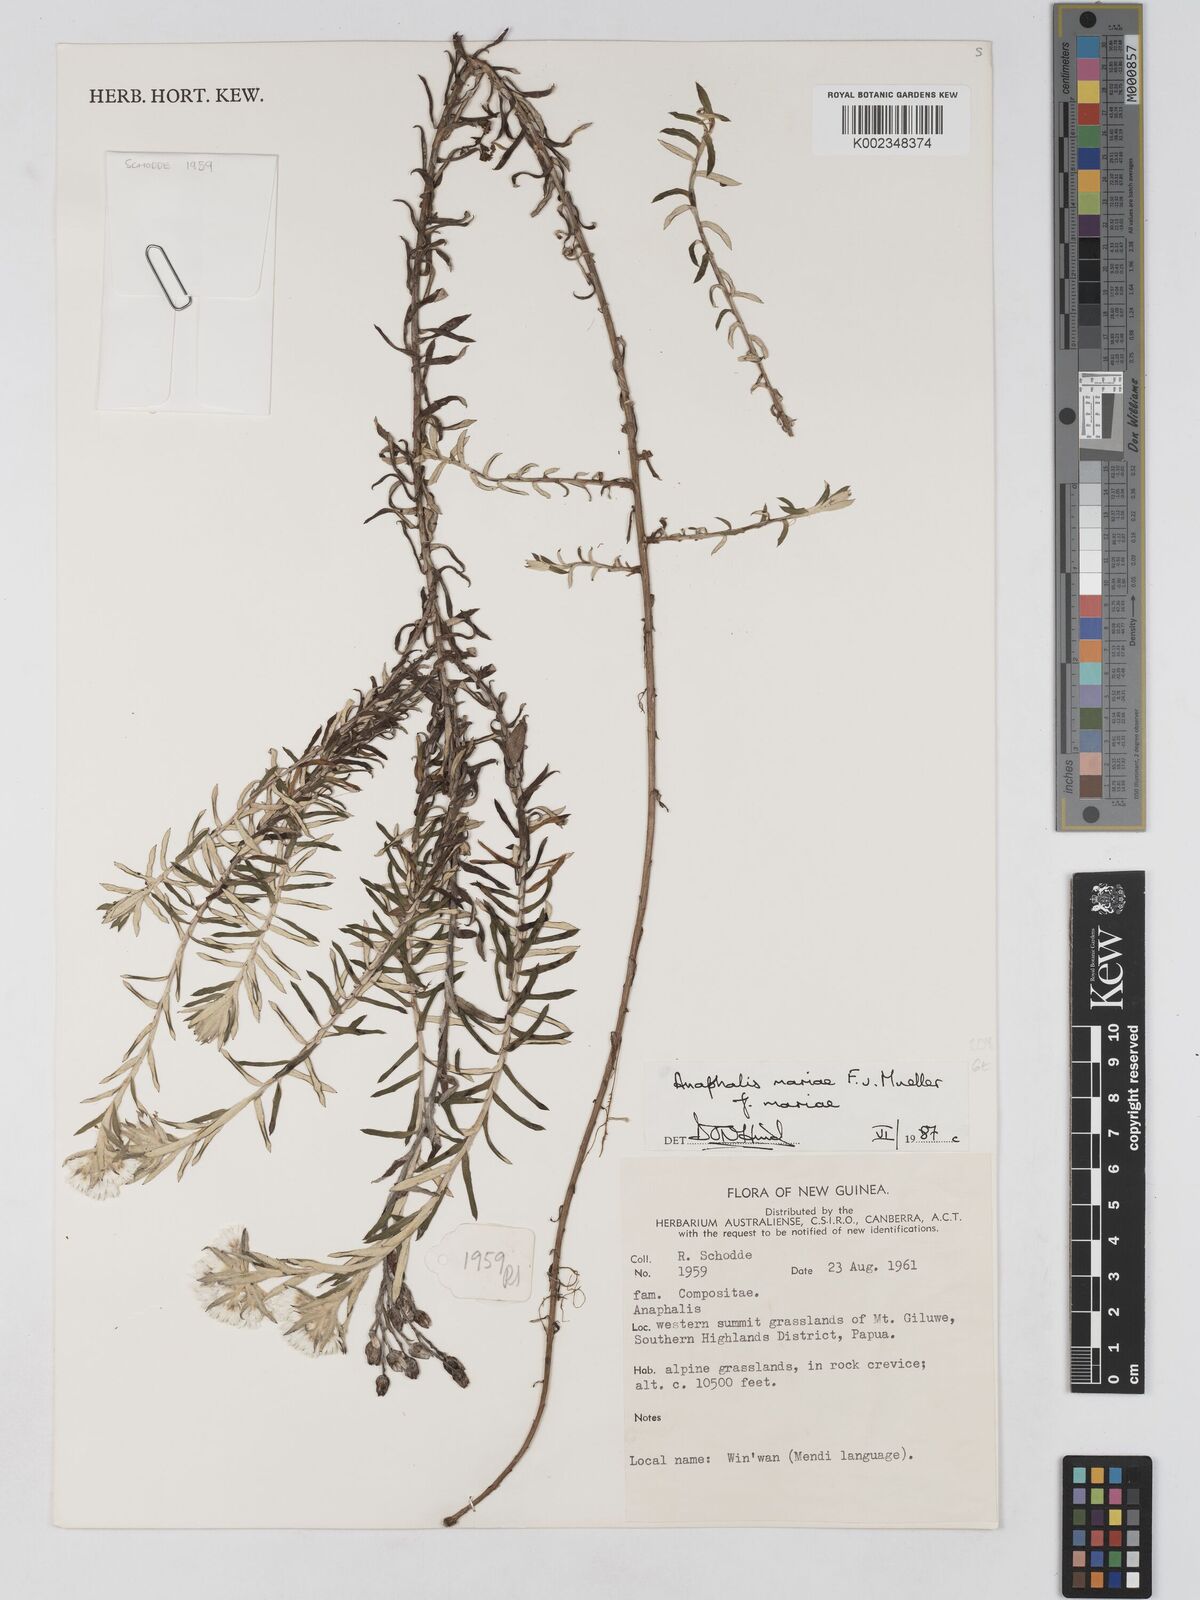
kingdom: Plantae
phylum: Tracheophyta
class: Magnoliopsida
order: Asterales
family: Asteraceae
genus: Anaphalioides
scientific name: Anaphalioides mariae
